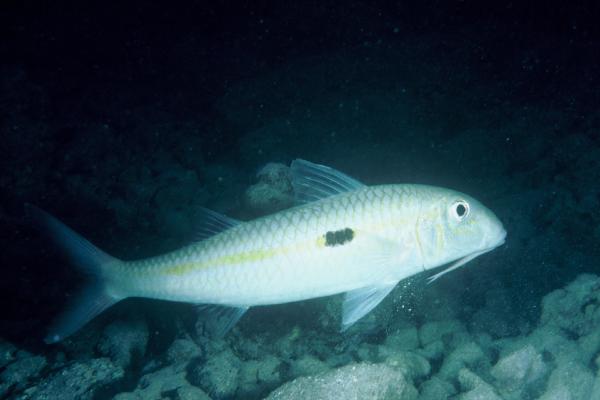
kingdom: Animalia
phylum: Chordata
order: Perciformes
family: Mullidae
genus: Mulloidichthys
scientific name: Mulloidichthys flavolineatus
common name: Yellowstripe goatfish
